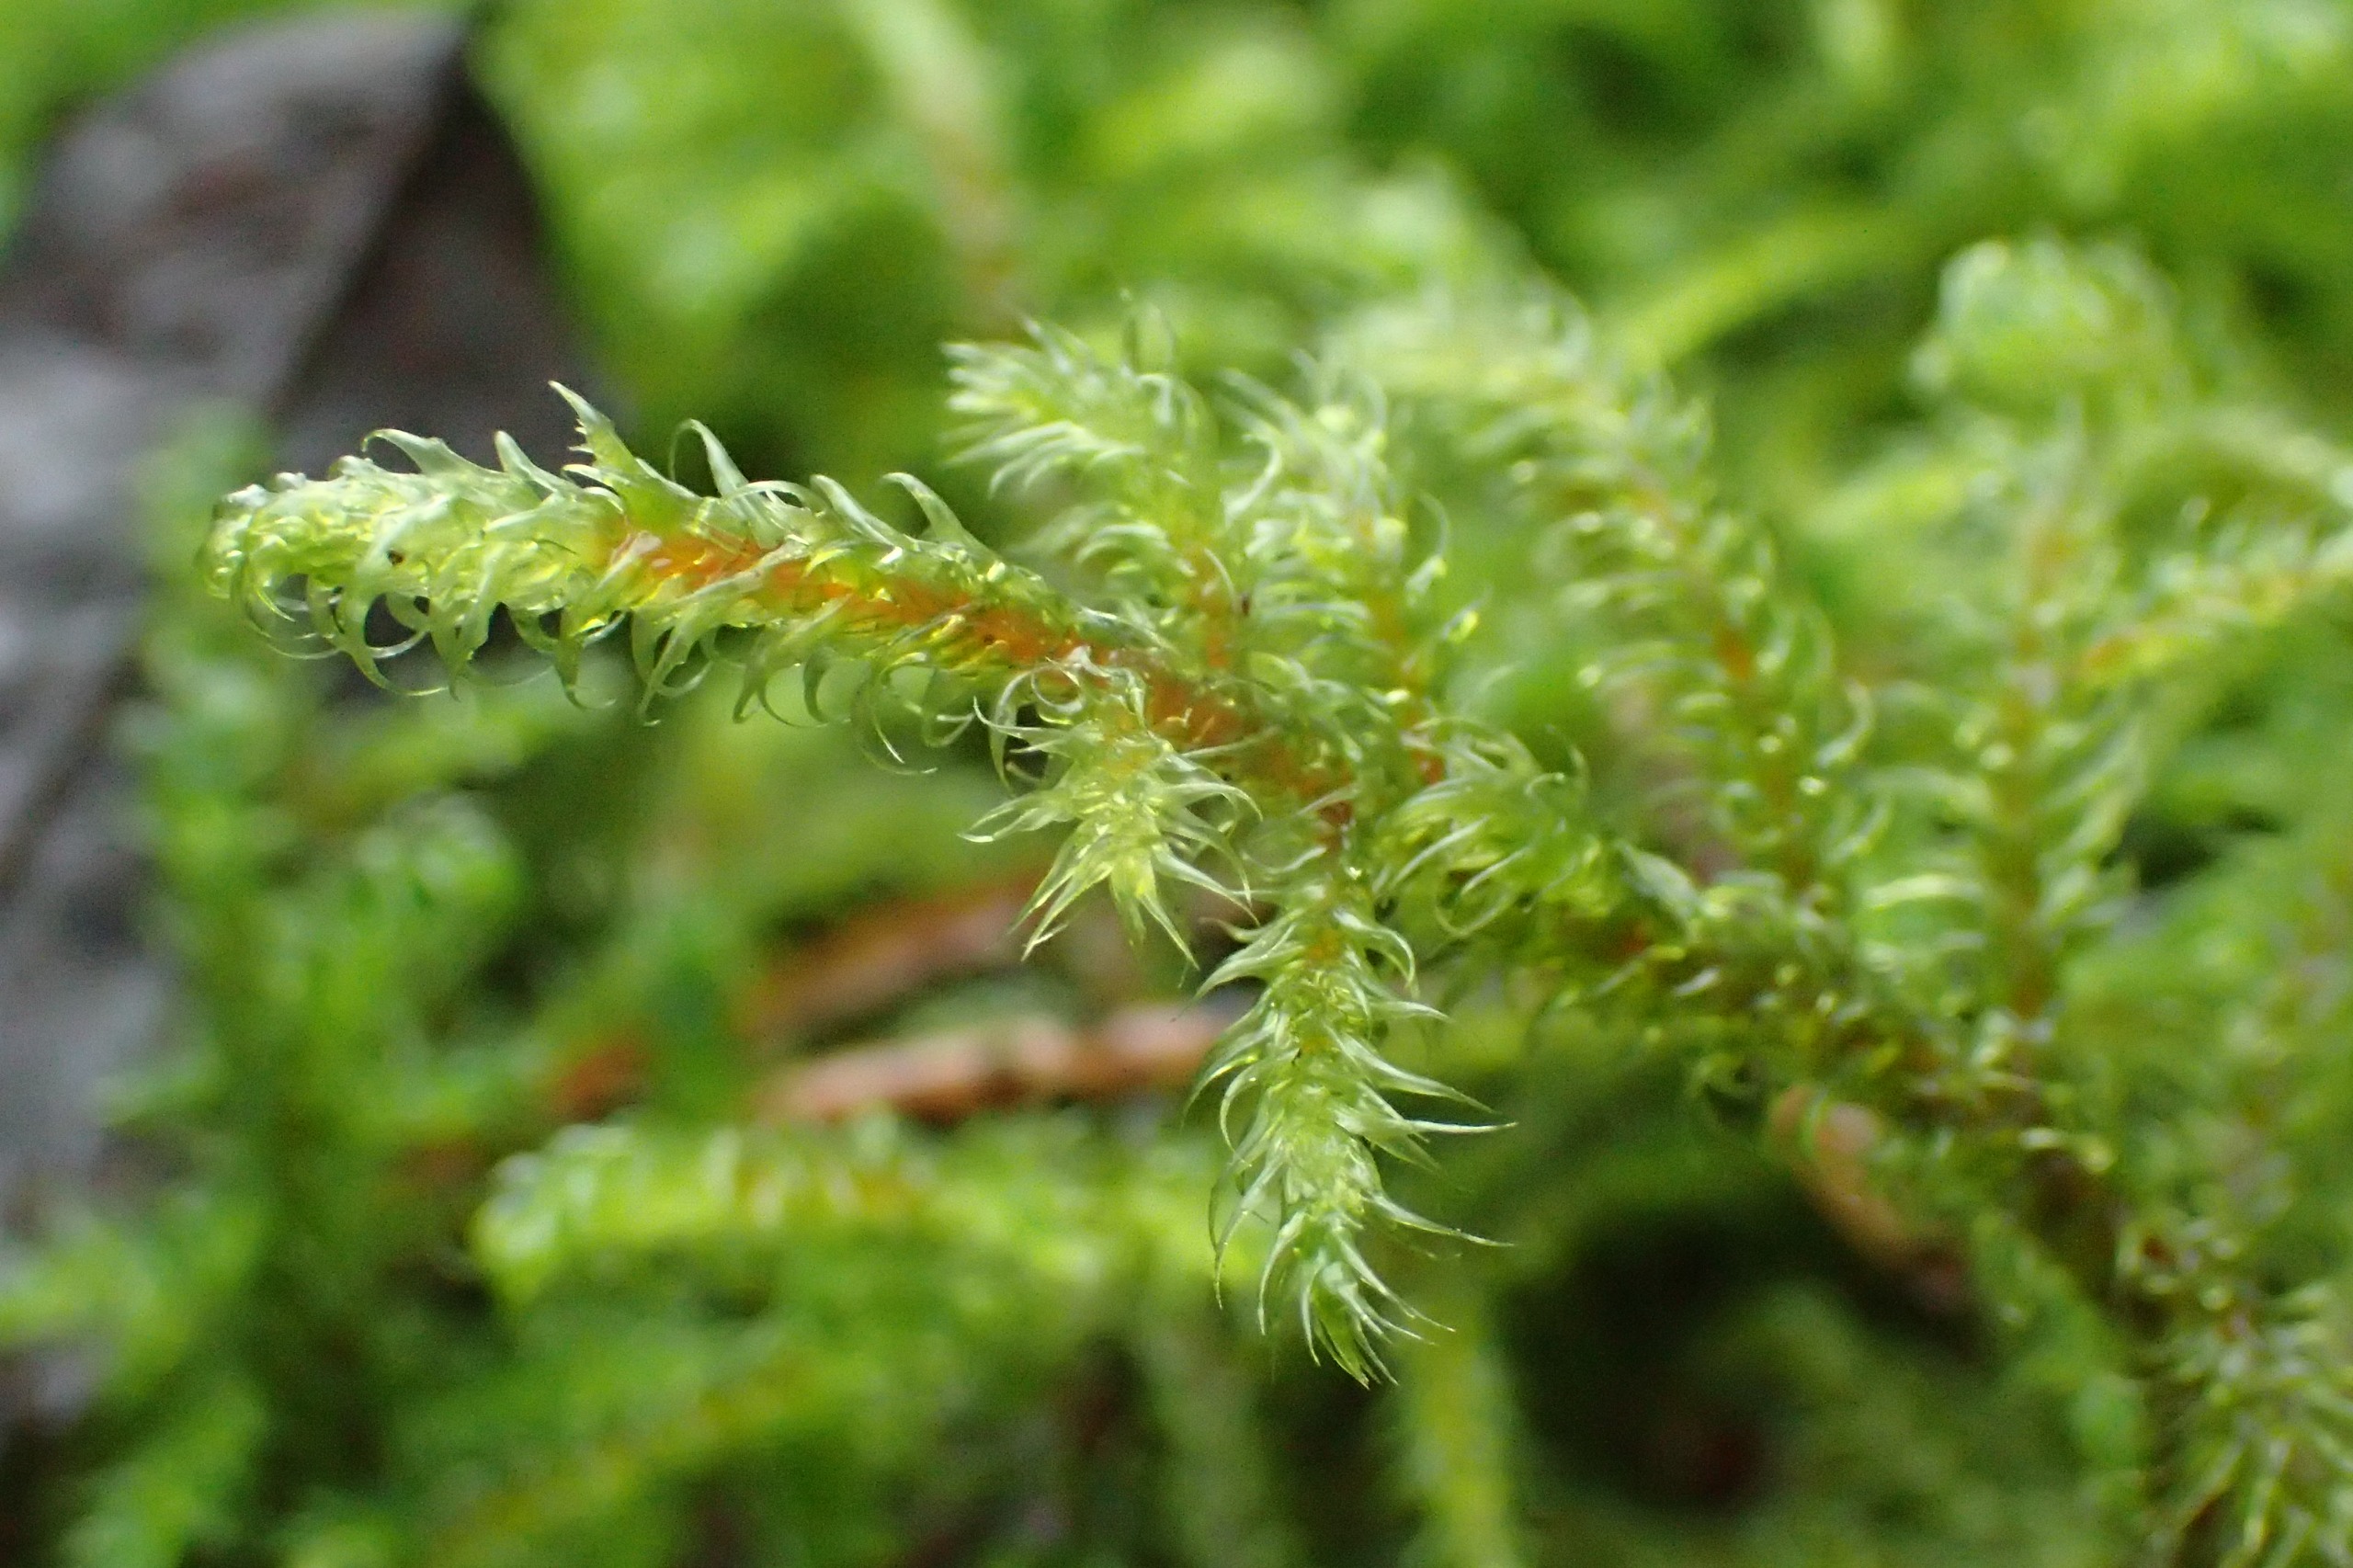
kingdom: Plantae
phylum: Bryophyta
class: Bryopsida
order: Hypnales
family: Hylocomiaceae
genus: Rhytidiadelphus
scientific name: Rhytidiadelphus loreus
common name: Ulvefod-kransemos
